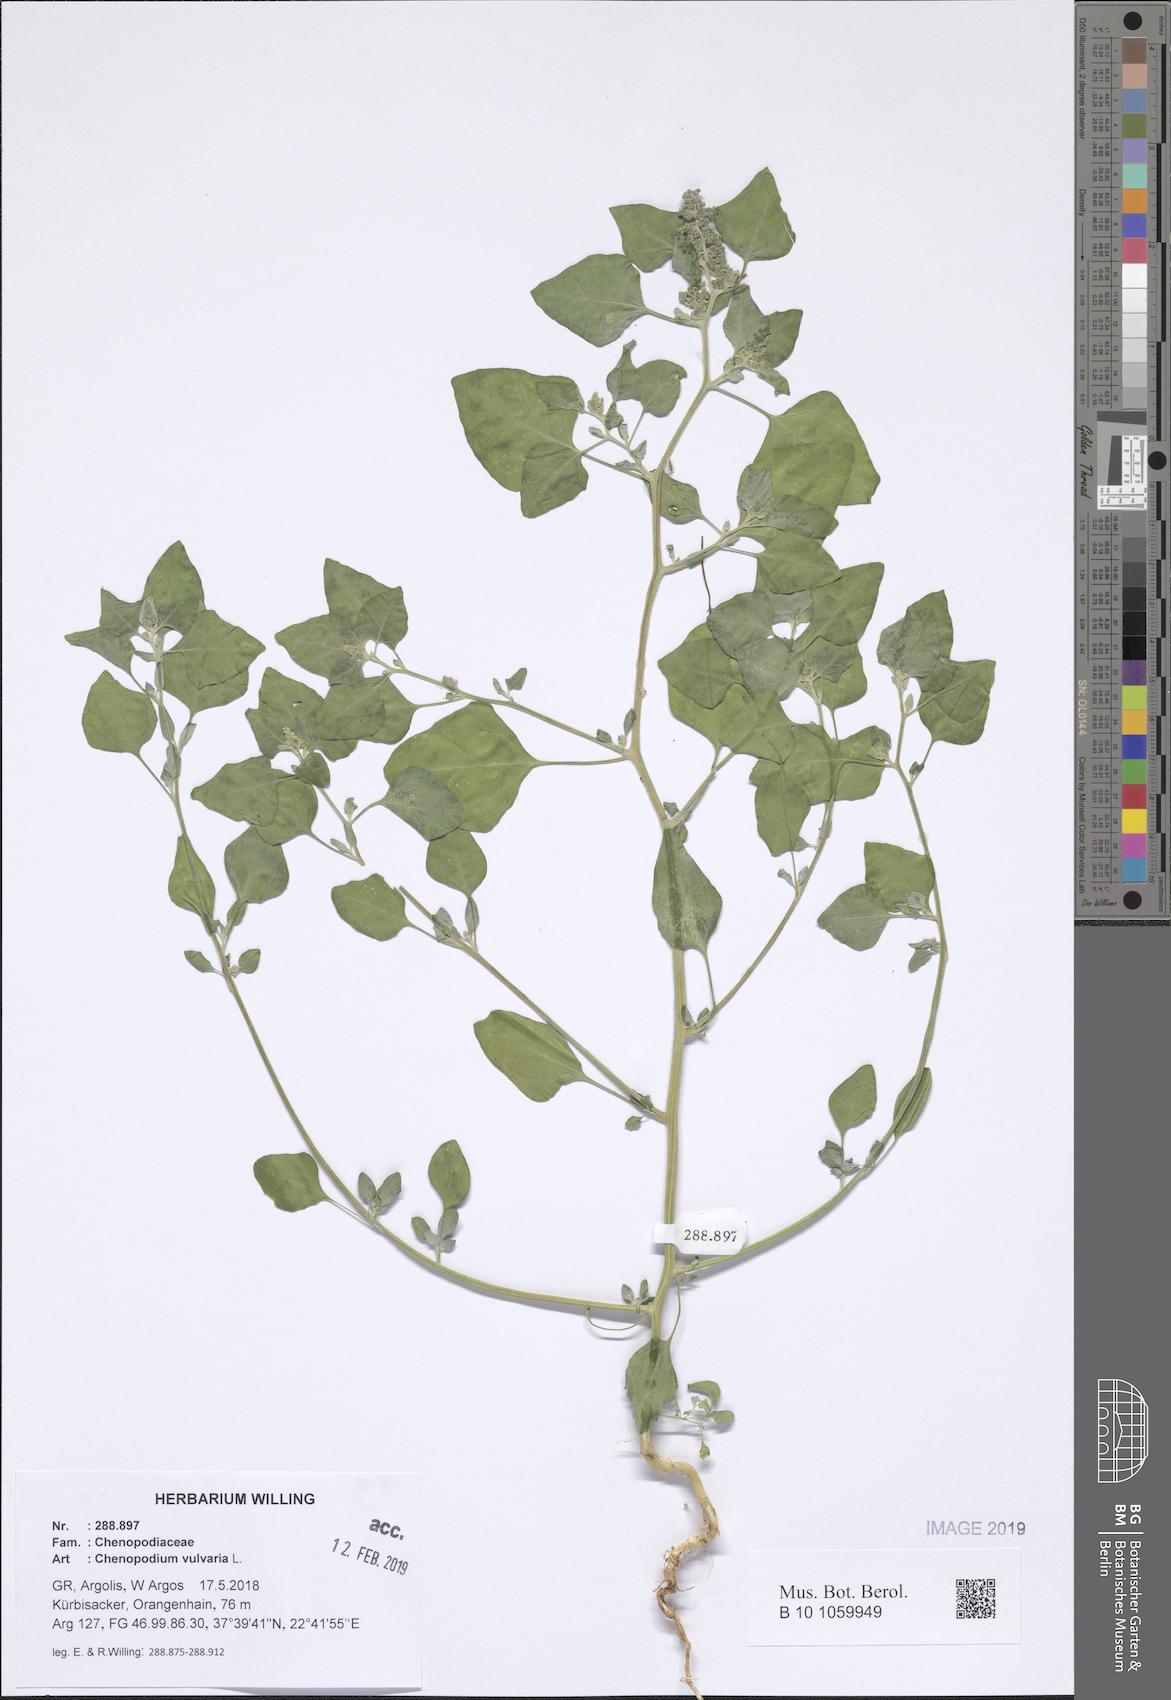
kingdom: Plantae
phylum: Tracheophyta
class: Magnoliopsida
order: Caryophyllales
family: Amaranthaceae
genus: Chenopodium
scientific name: Chenopodium vulvaria
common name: Stinking goosefoot
